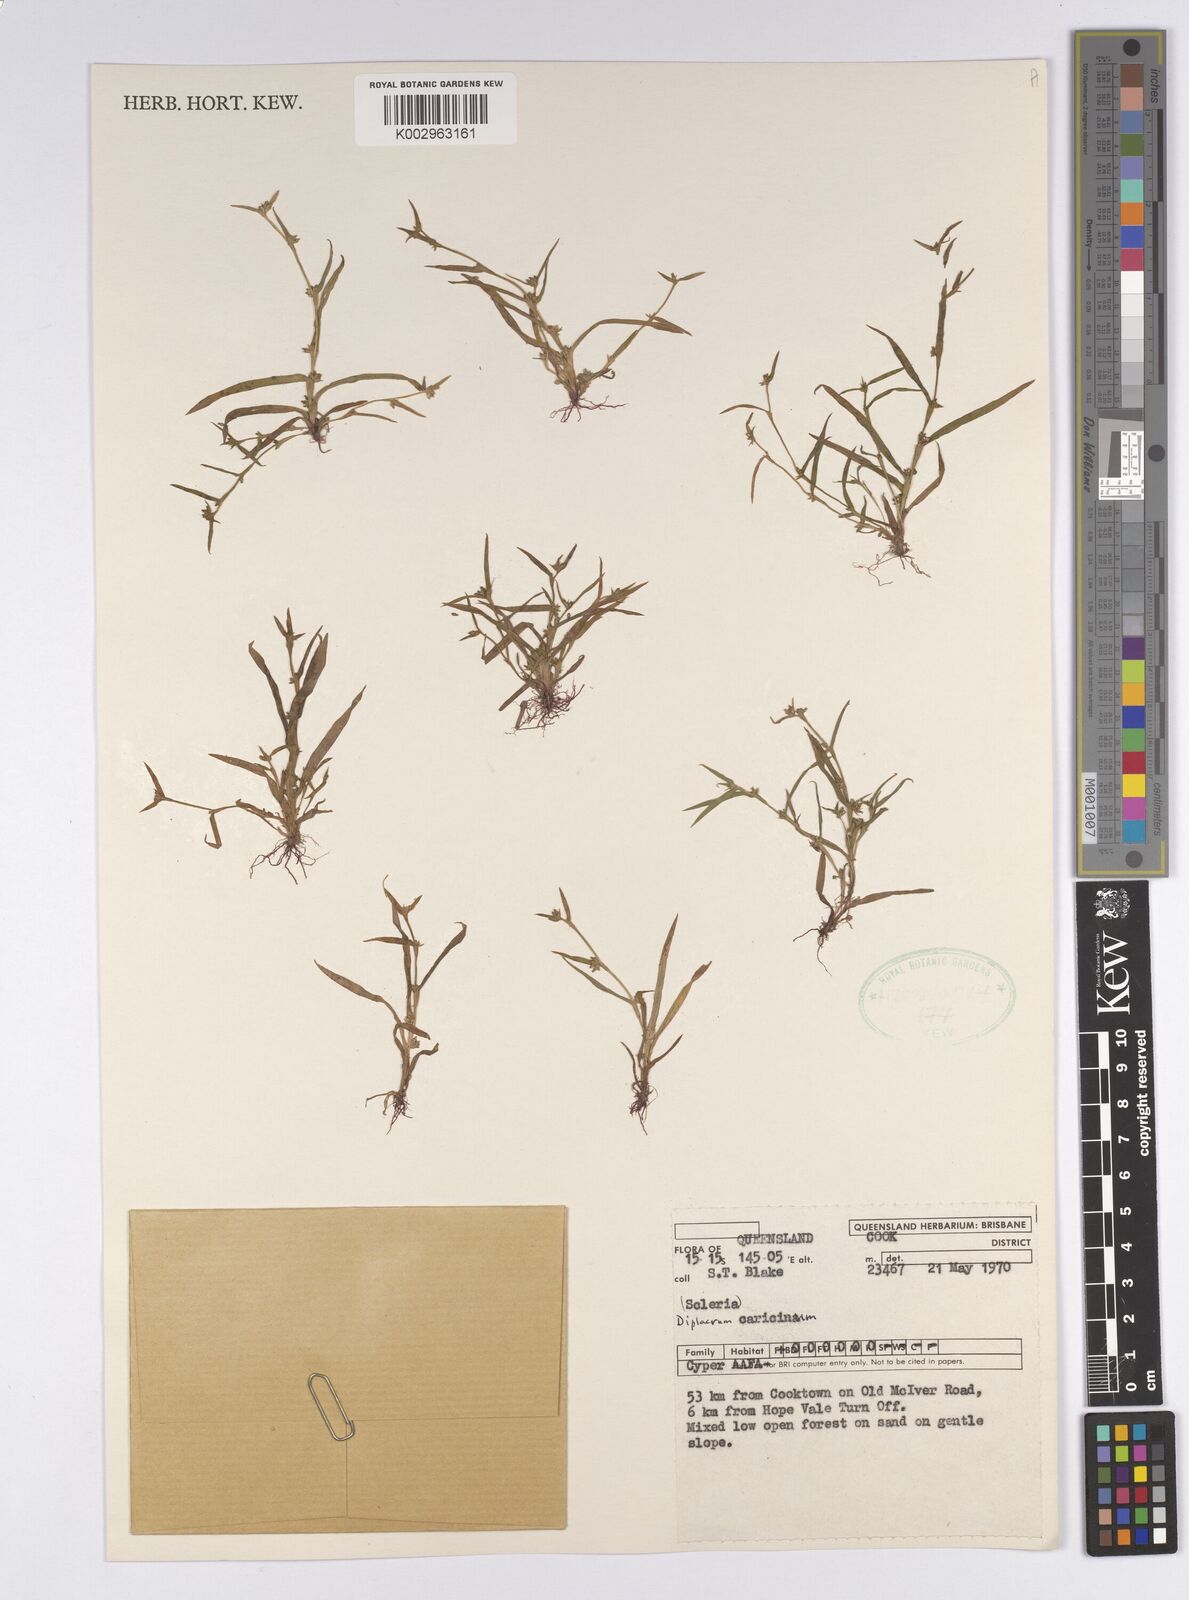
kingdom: Plantae
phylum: Tracheophyta
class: Liliopsida
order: Poales
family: Cyperaceae
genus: Diplacrum
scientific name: Diplacrum caricinum
